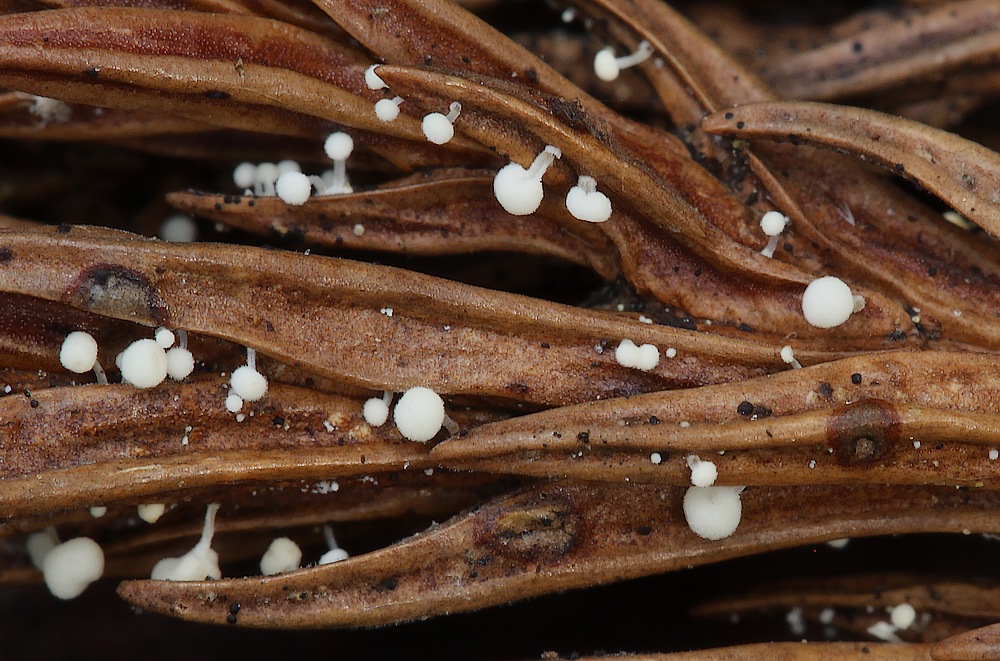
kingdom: Fungi
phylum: Basidiomycota
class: Agaricomycetes
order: Agaricales
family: Physalacriaceae
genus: Physalacria
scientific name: Physalacria cryptomeriae
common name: japangran-boldkølle
